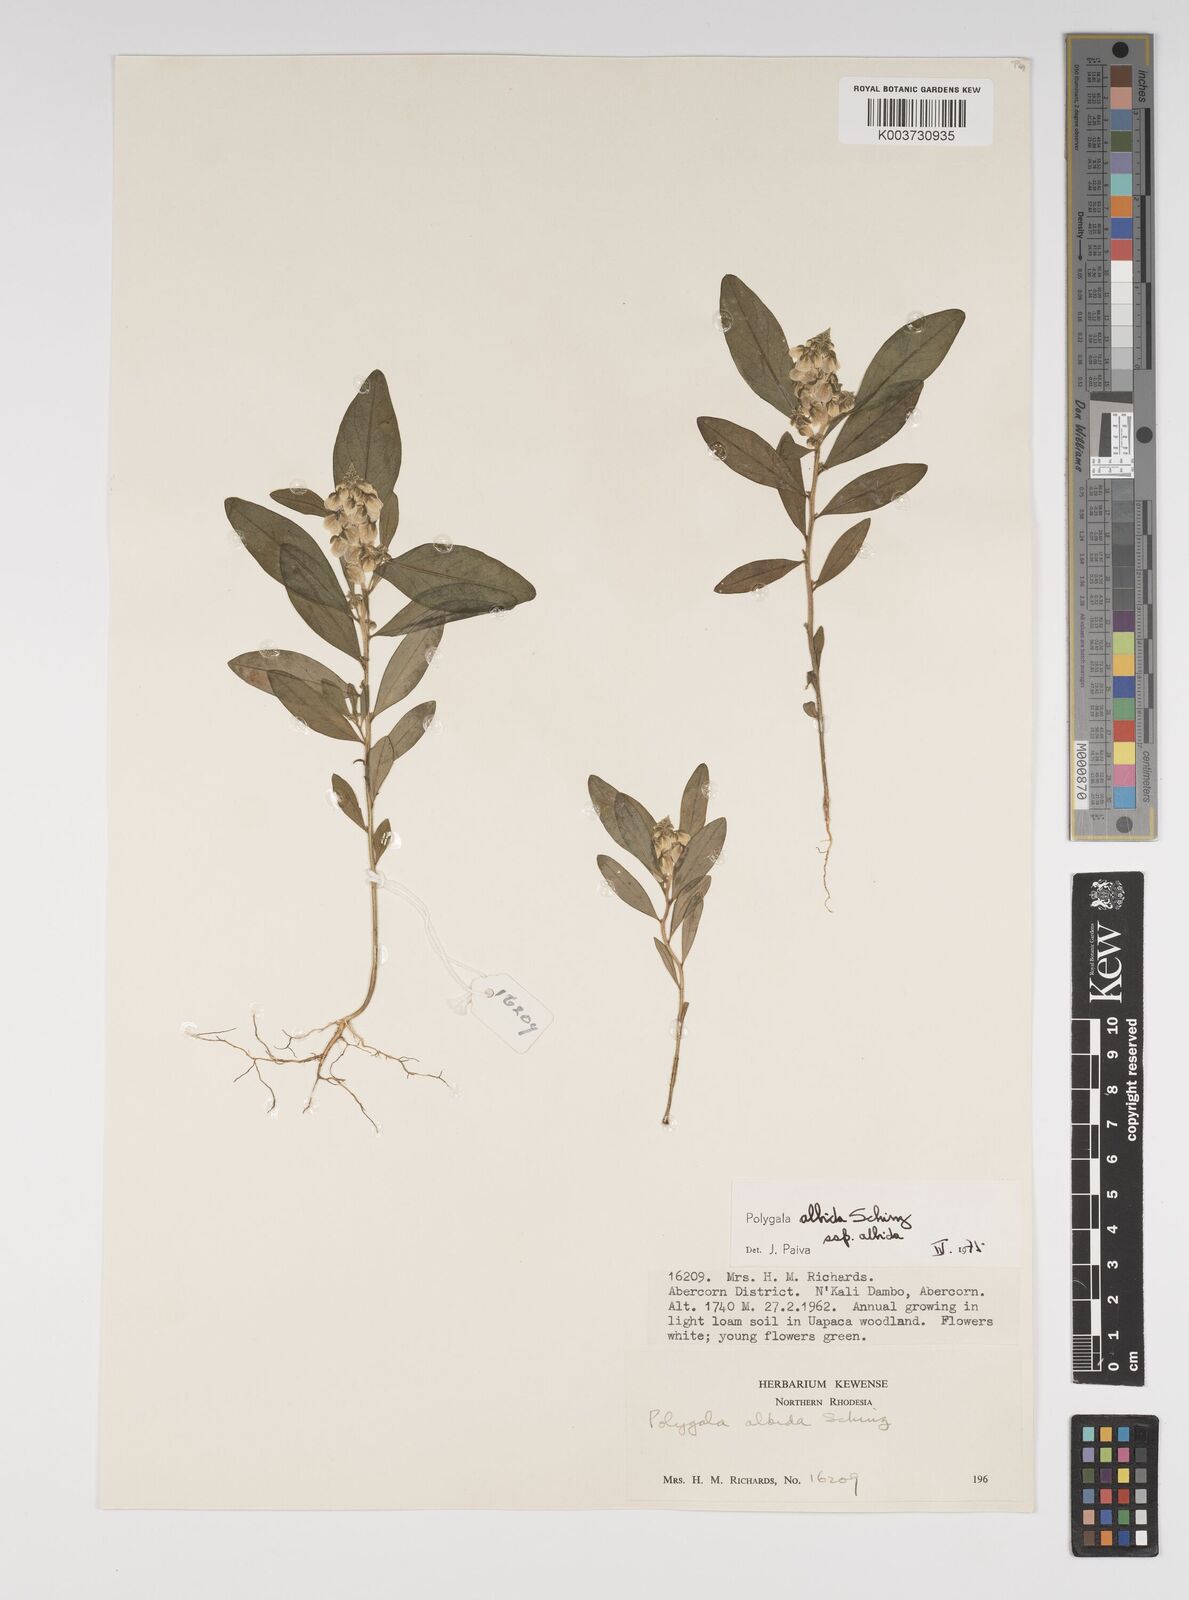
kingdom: Plantae
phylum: Tracheophyta
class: Magnoliopsida
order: Fabales
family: Polygalaceae
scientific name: Polygalaceae
